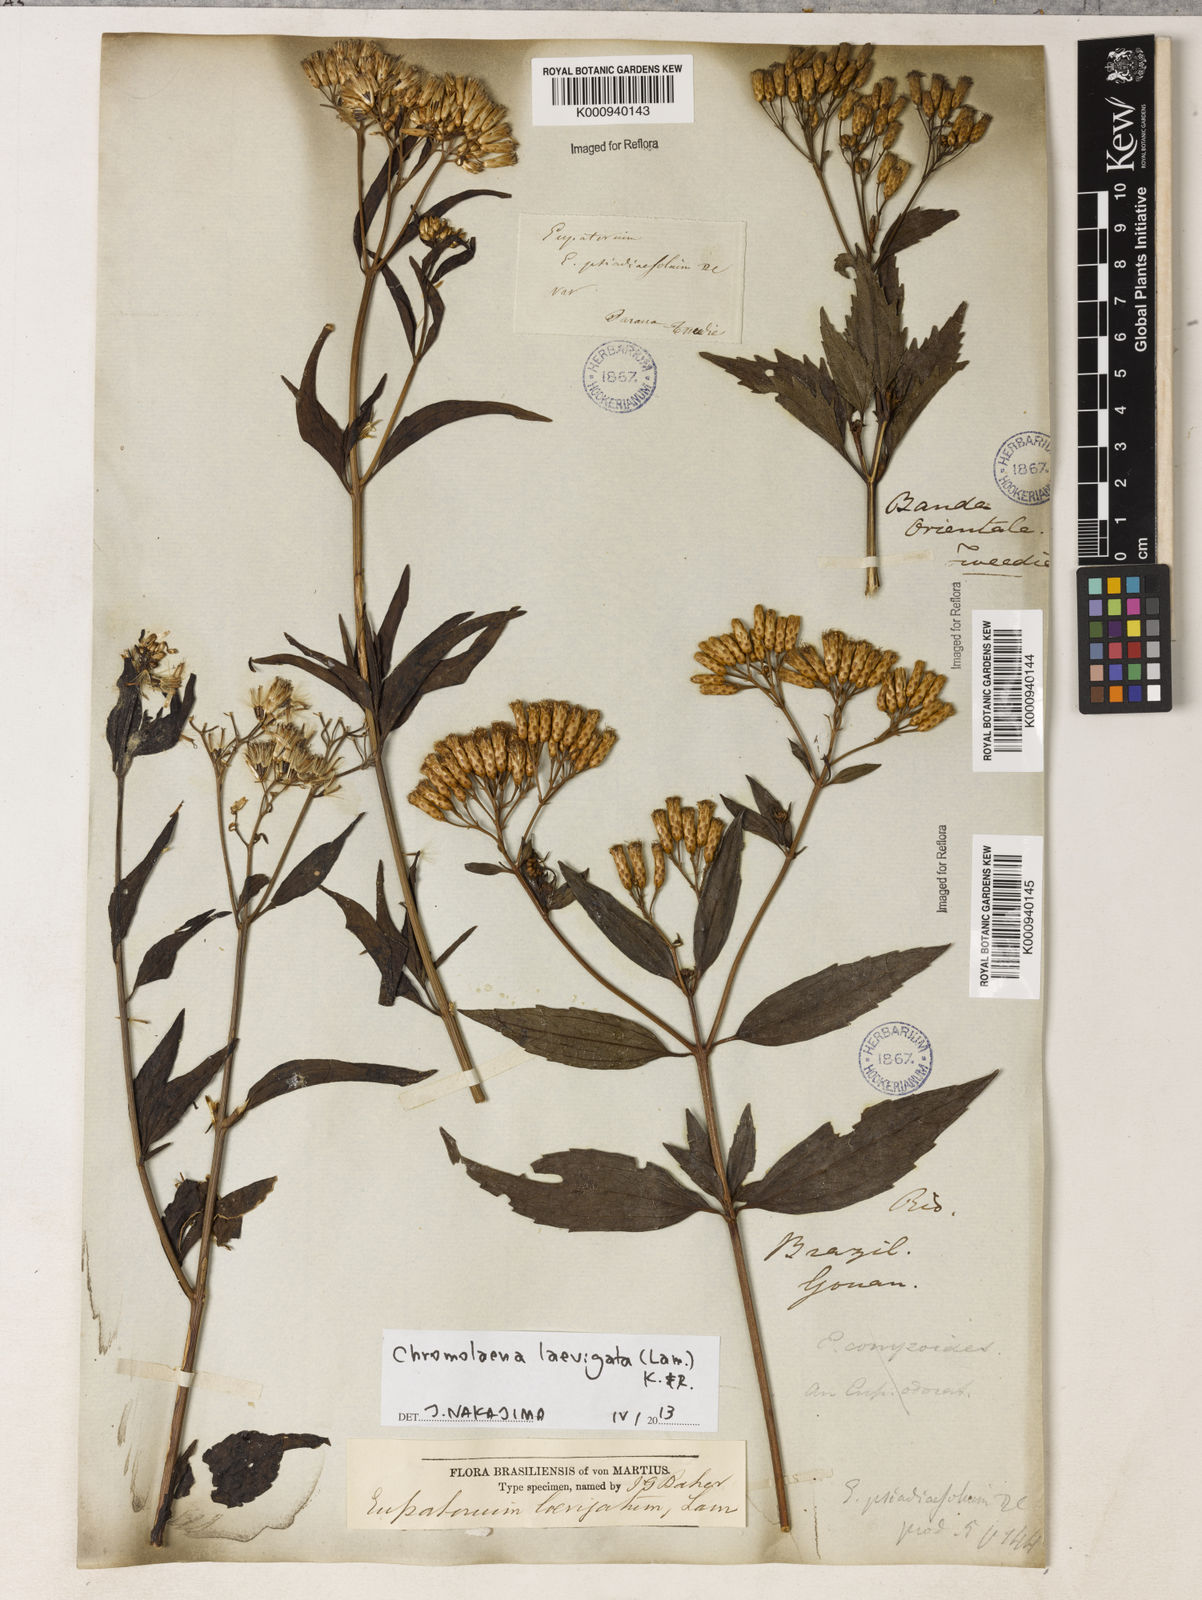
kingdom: Plantae
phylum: Tracheophyta
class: Magnoliopsida
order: Asterales
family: Asteraceae
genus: Chromolaena
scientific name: Chromolaena laevigata
